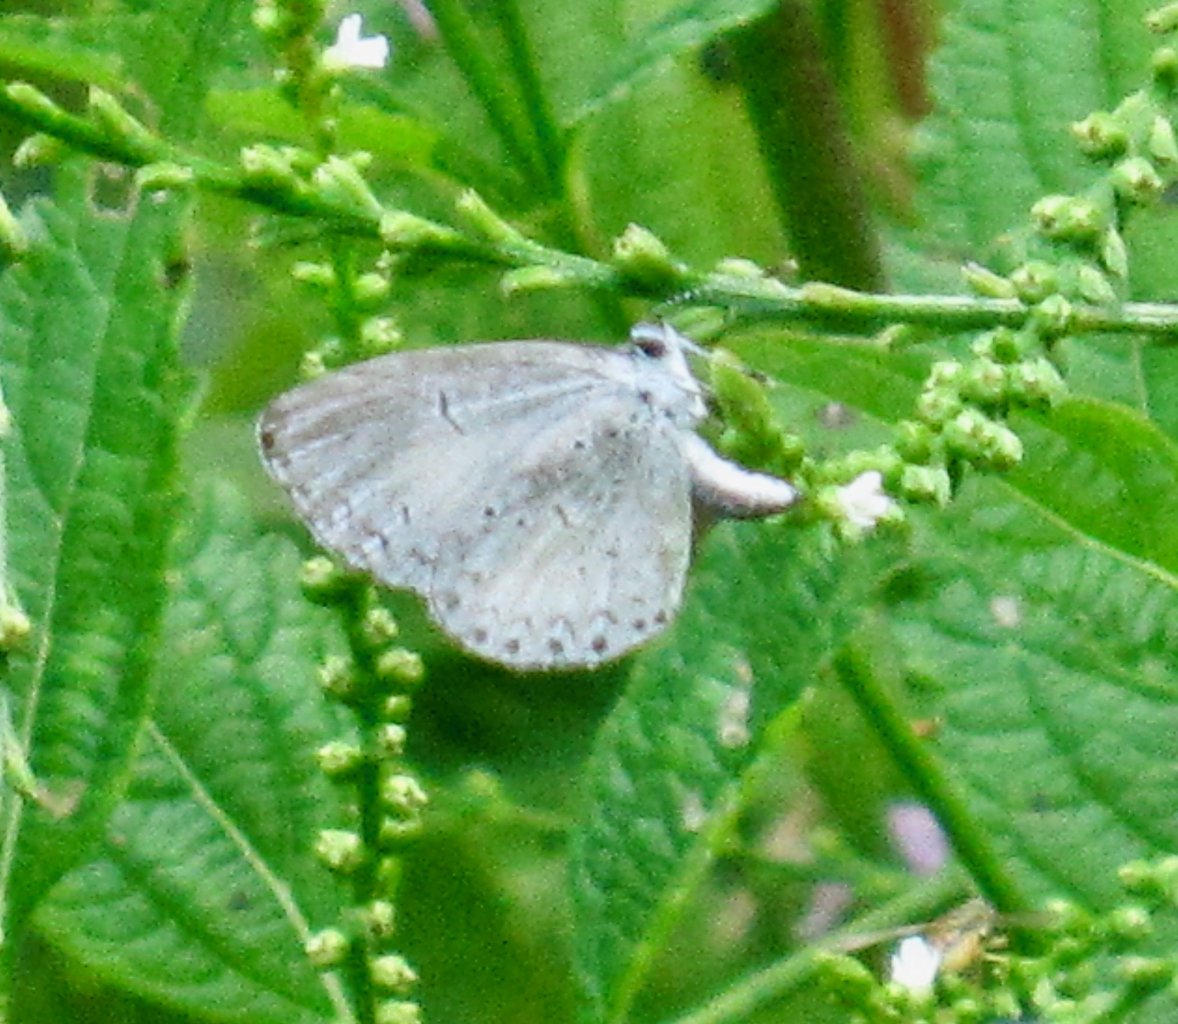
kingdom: Animalia
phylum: Arthropoda
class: Insecta
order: Lepidoptera
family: Lycaenidae
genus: Cyaniris
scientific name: Cyaniris neglecta
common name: Summer Azure
